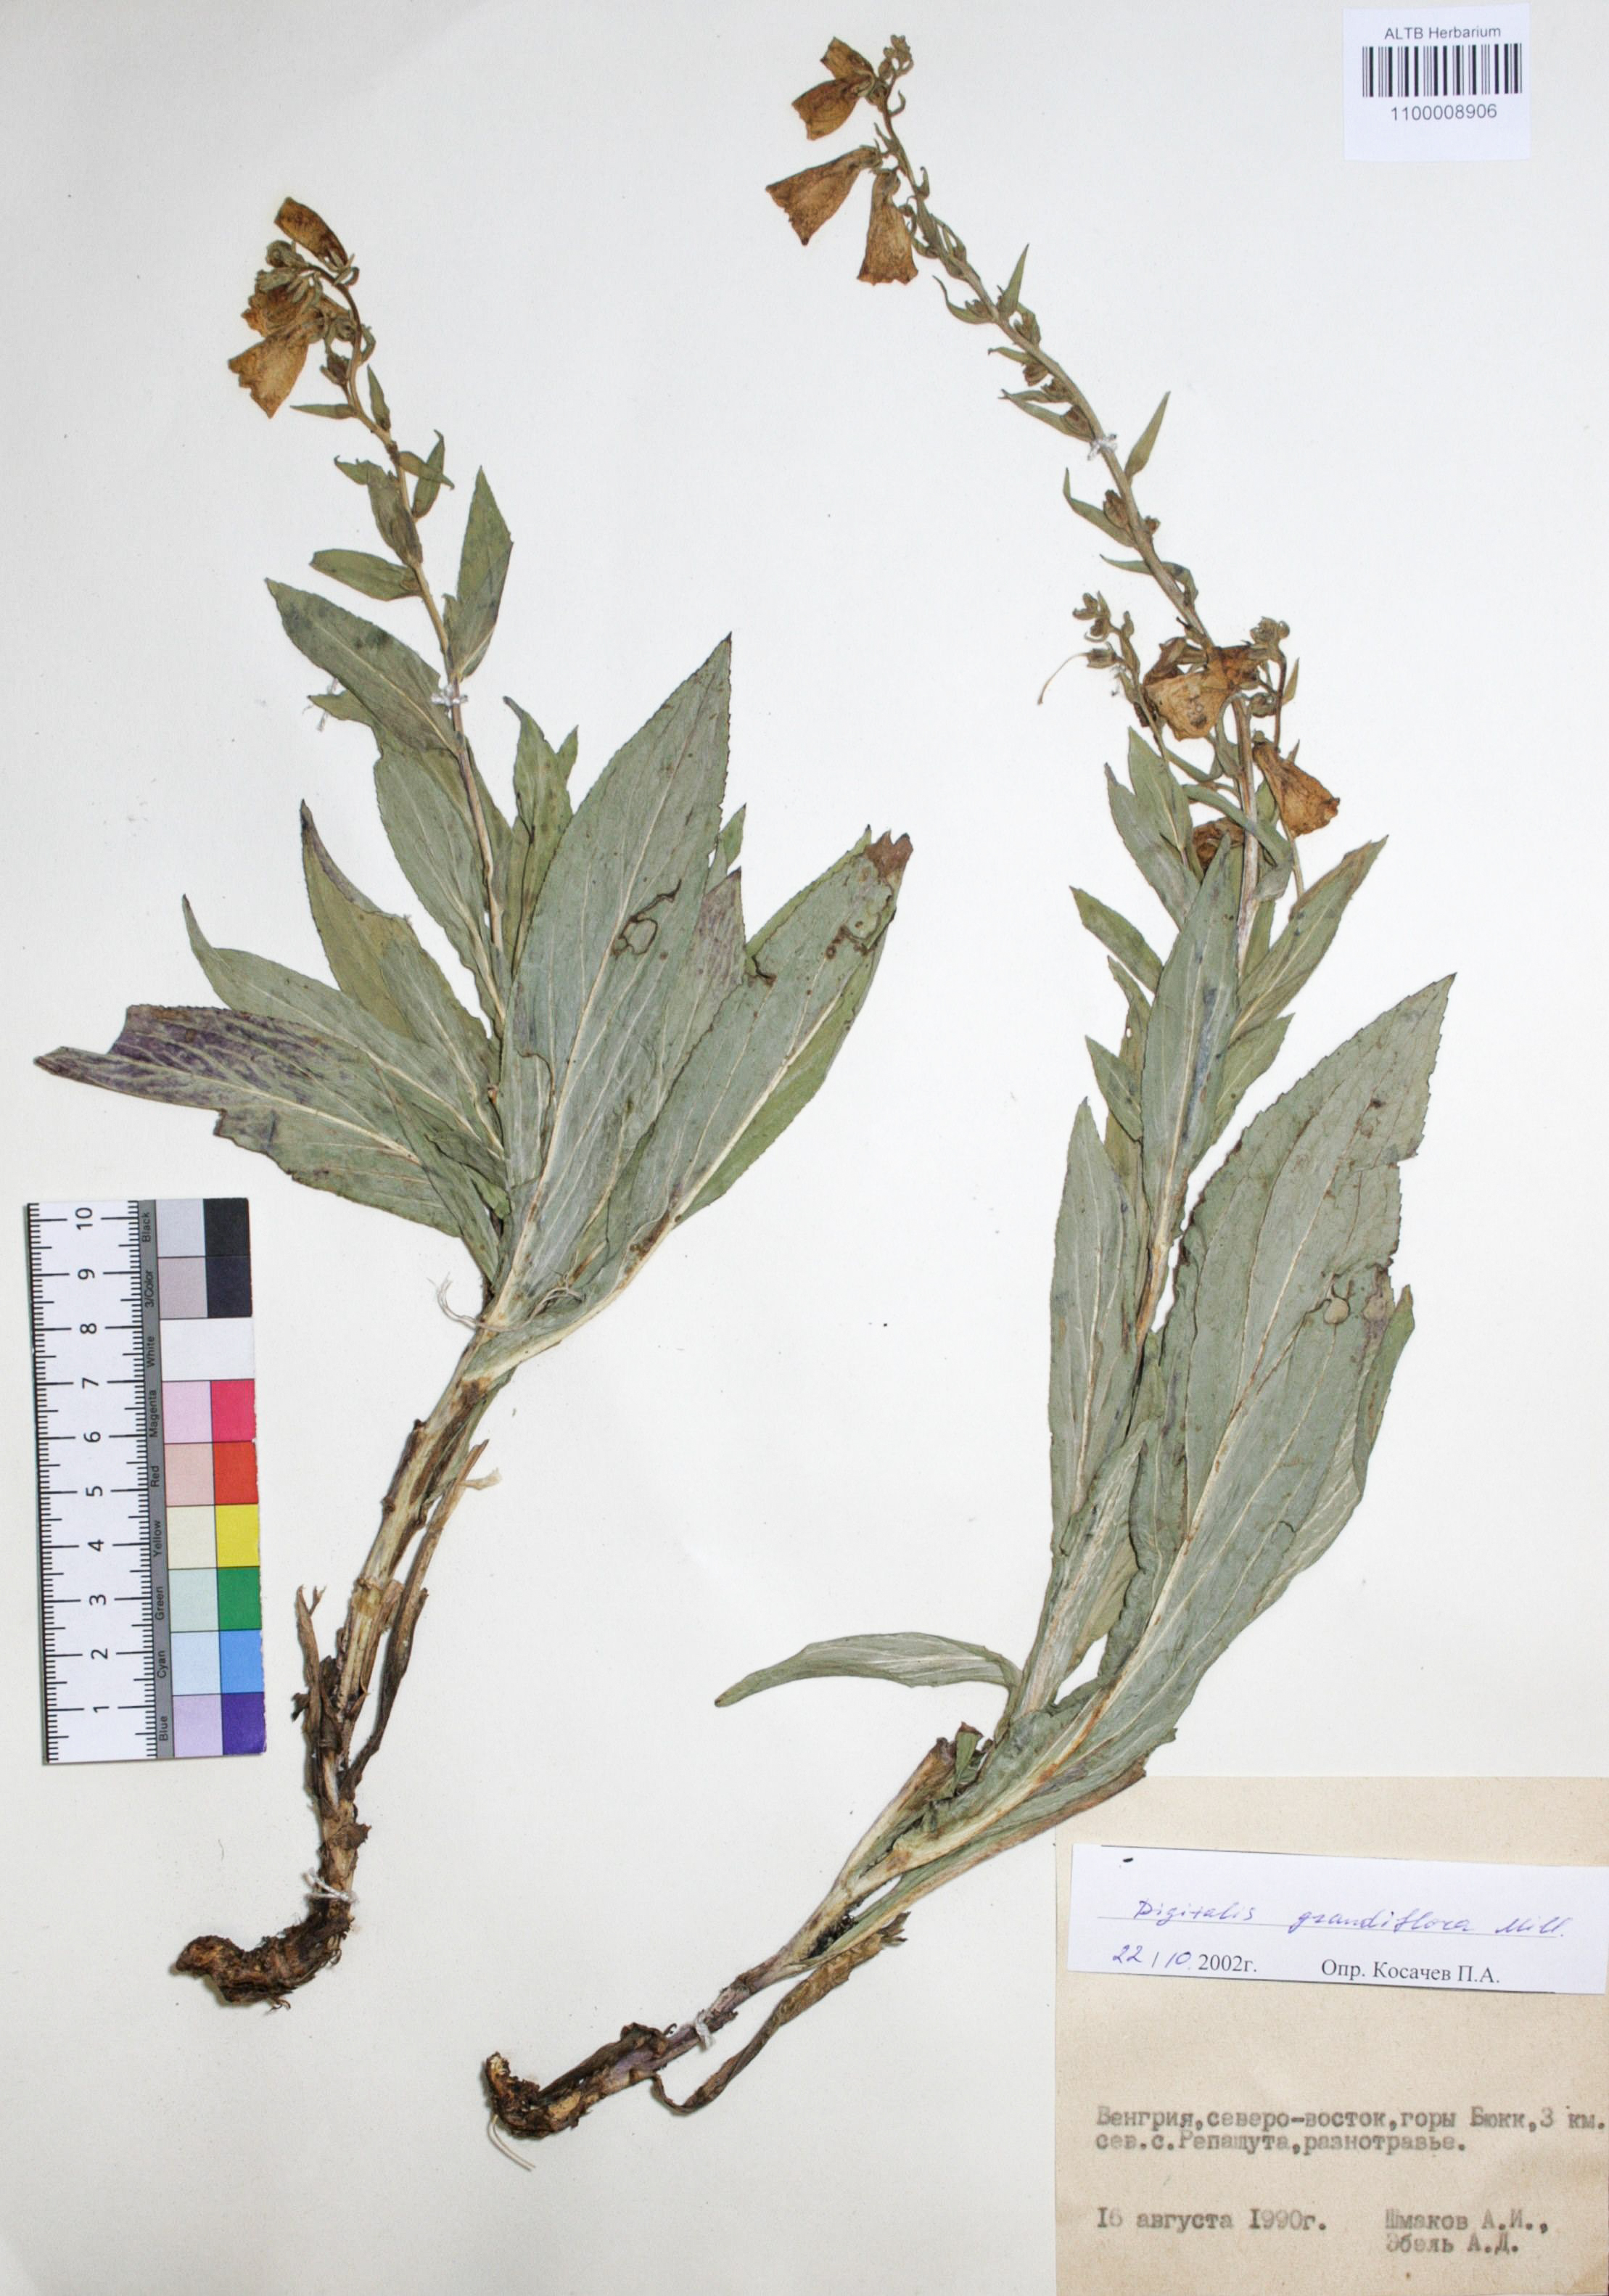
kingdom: Plantae
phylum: Tracheophyta
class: Magnoliopsida
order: Lamiales
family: Plantaginaceae
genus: Digitalis
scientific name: Digitalis grandiflora
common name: Yellow foxglove
